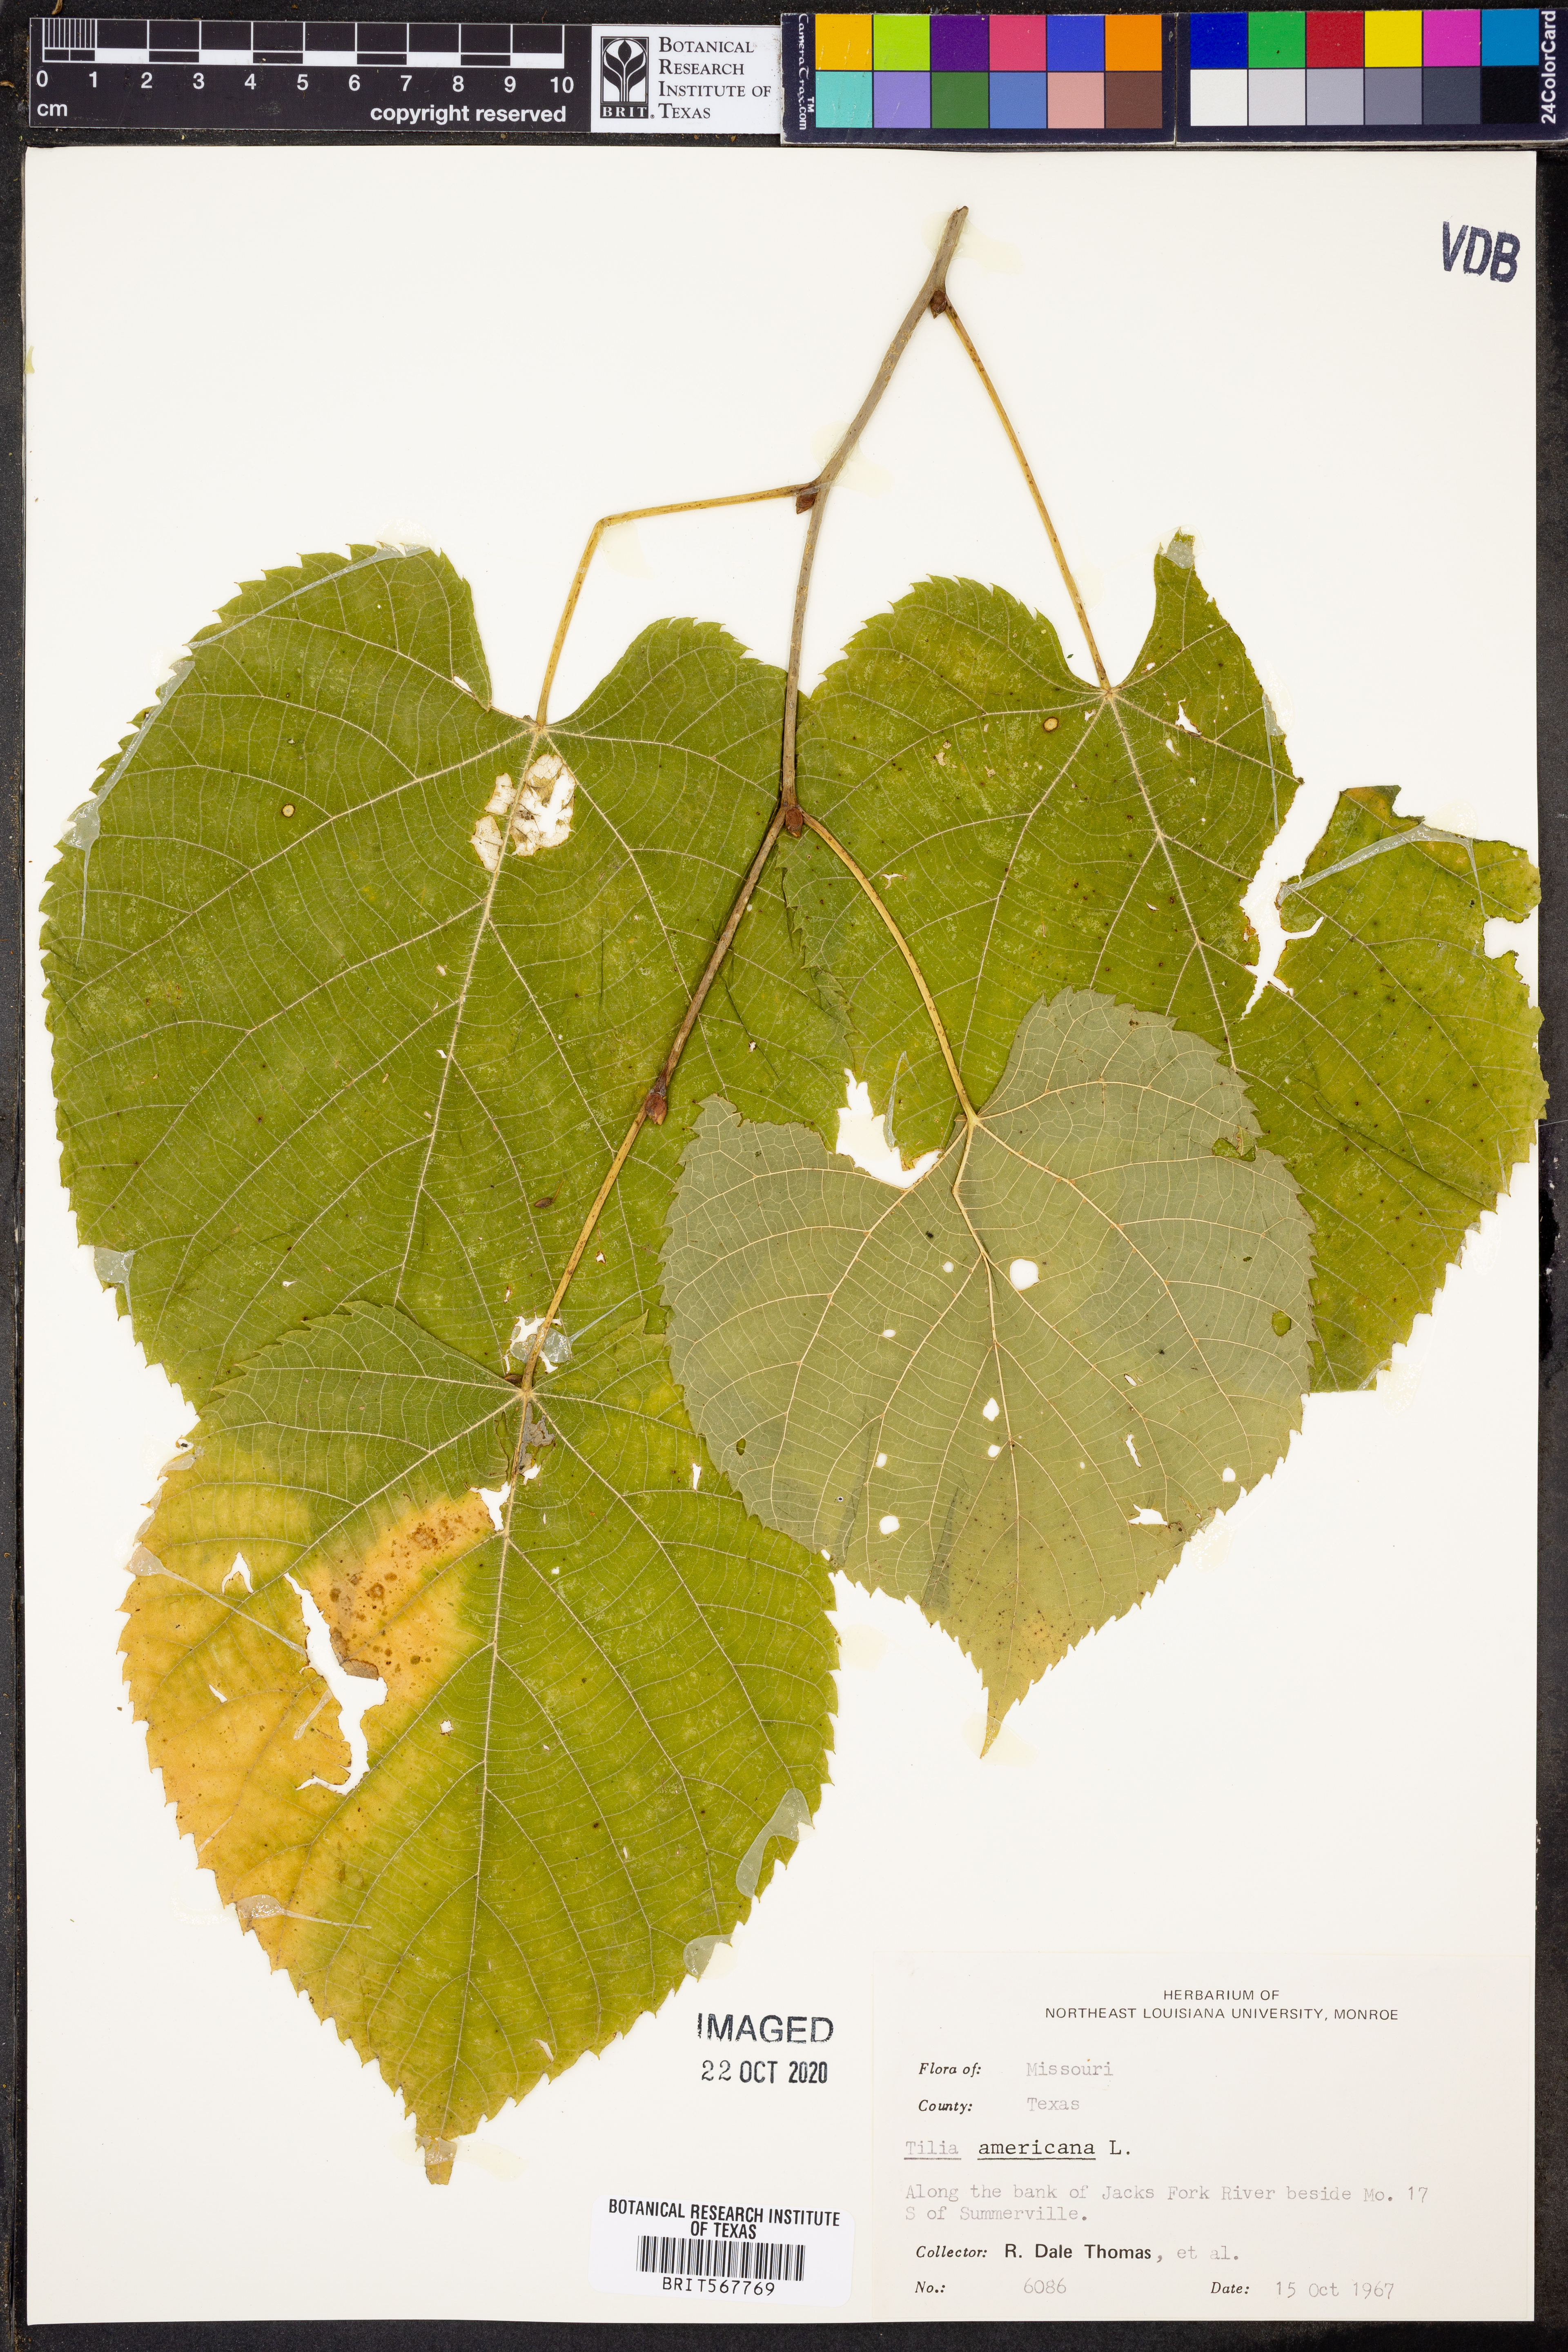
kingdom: Plantae
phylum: Tracheophyta
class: Magnoliopsida
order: Malvales
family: Malvaceae
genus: Tilia
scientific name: Tilia americana
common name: Basswood
